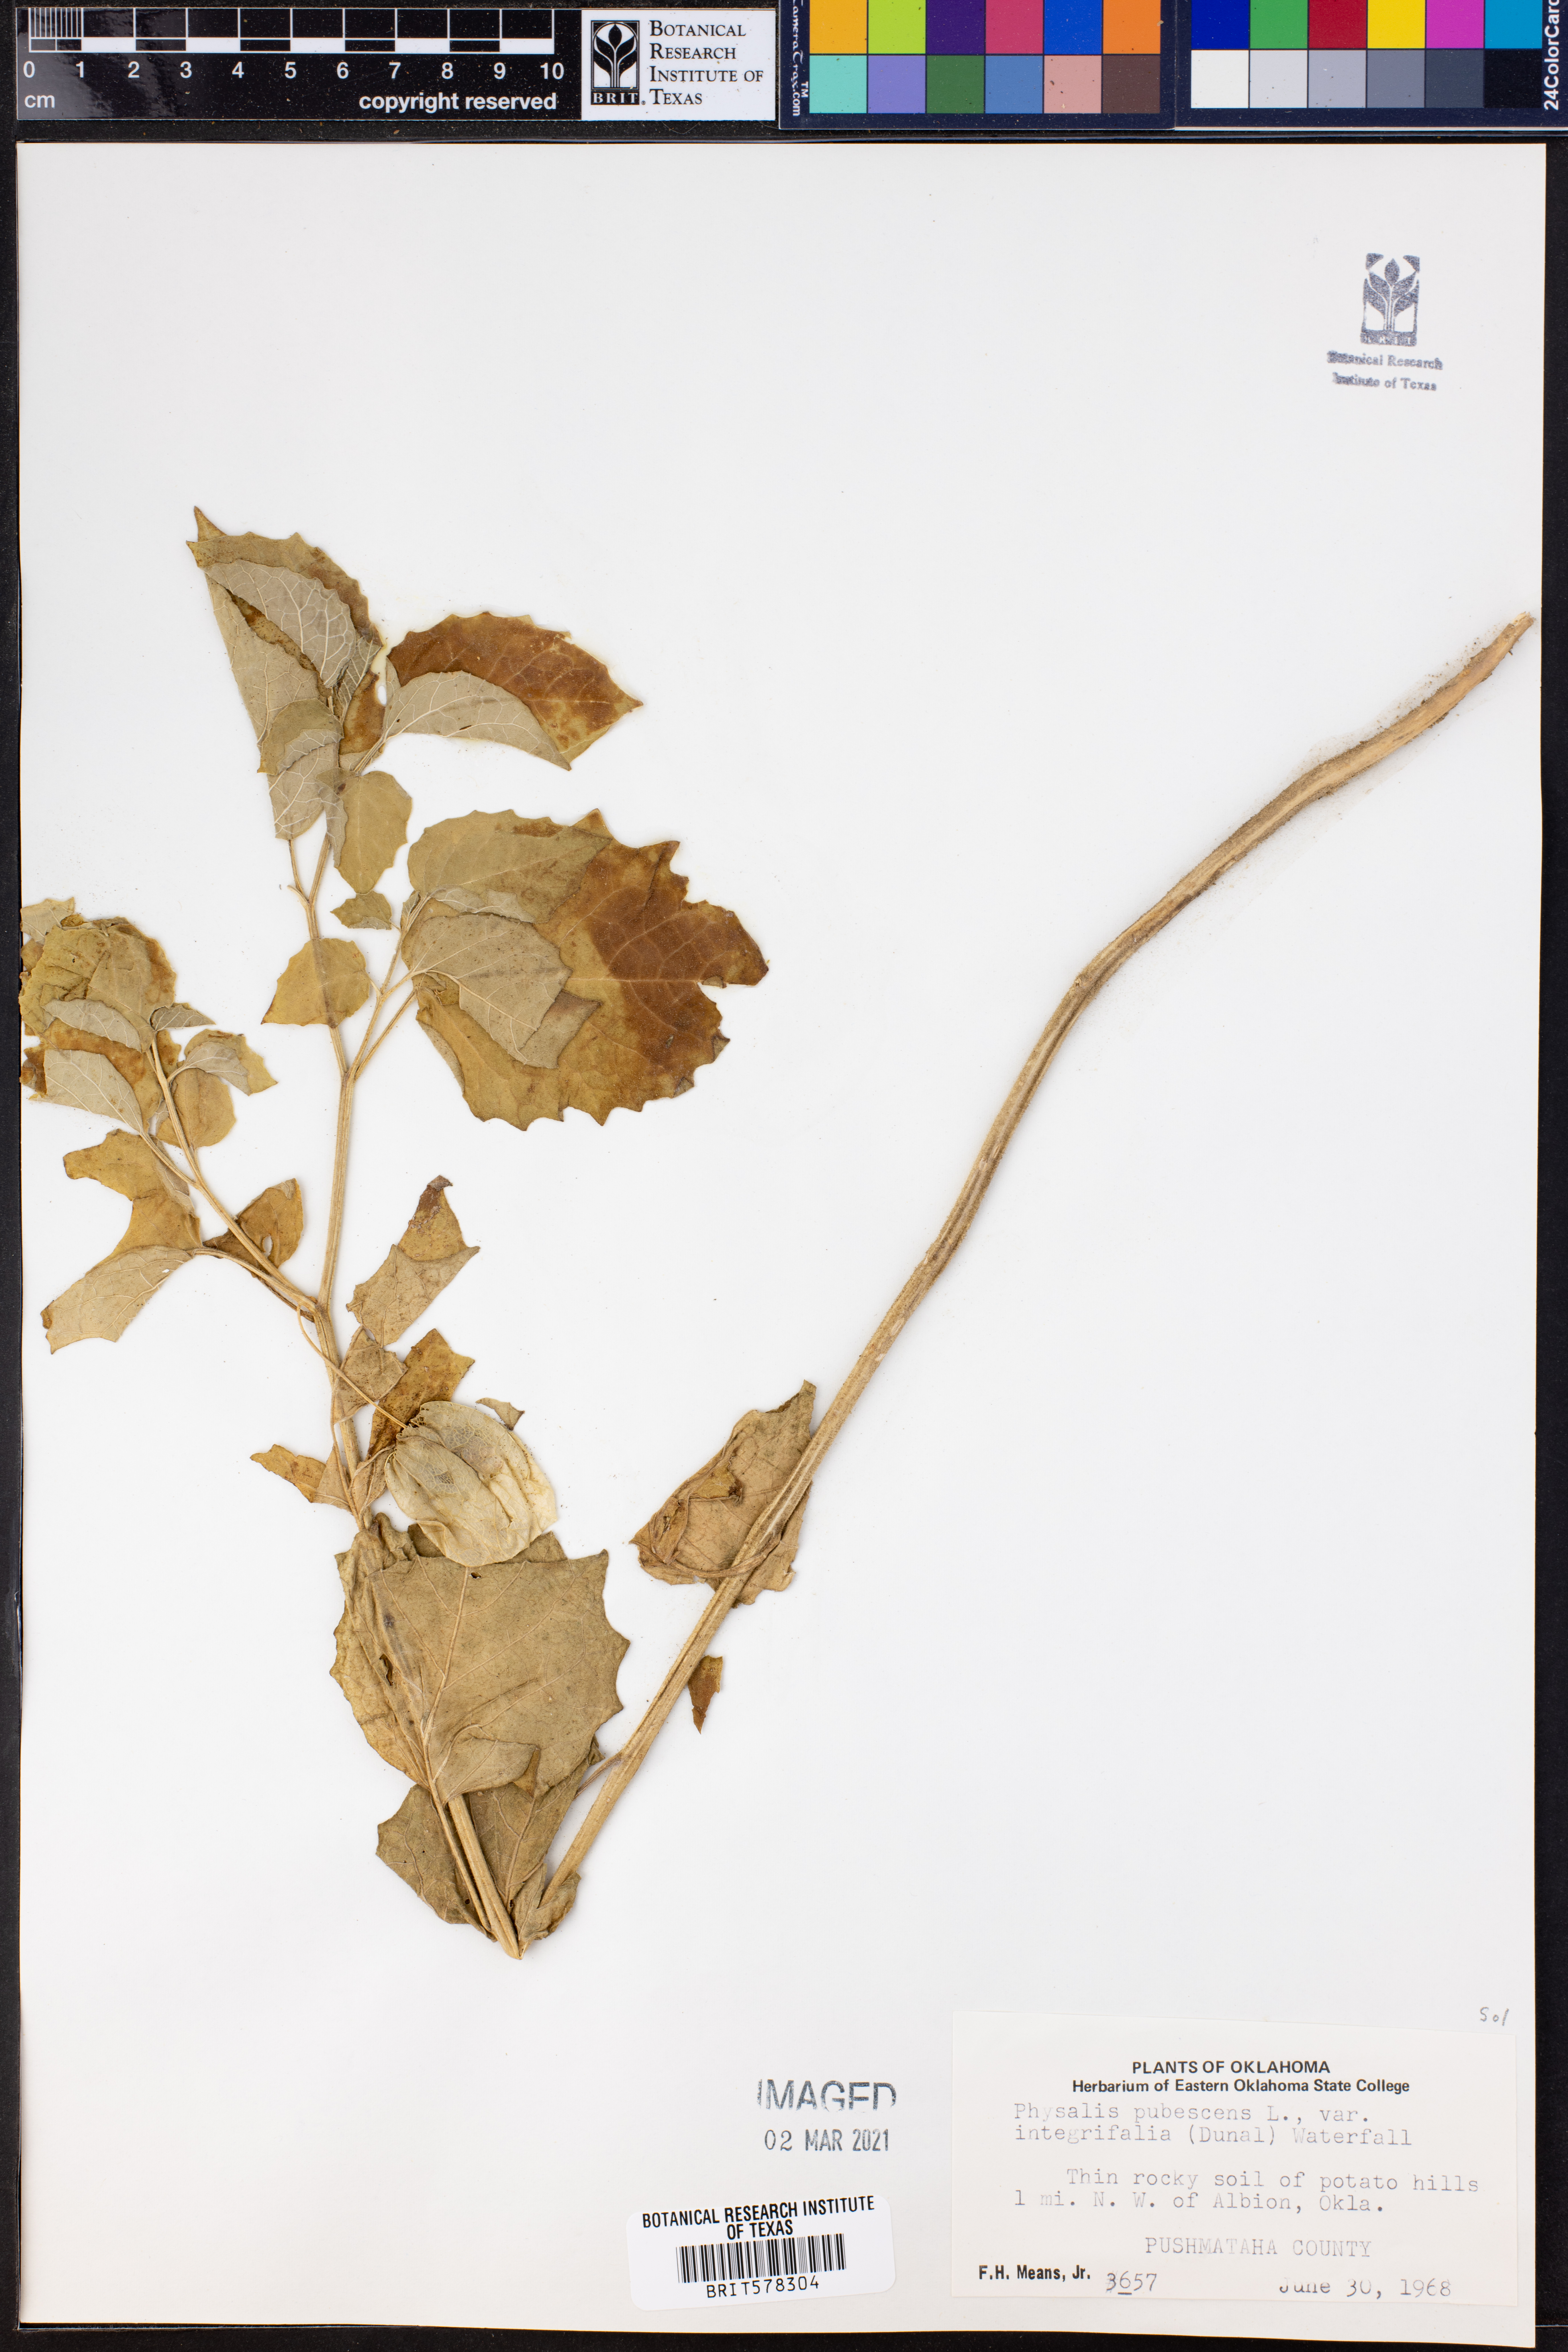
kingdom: Plantae
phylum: Tracheophyta
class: Magnoliopsida
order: Solanales
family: Solanaceae
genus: Physalis
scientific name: Physalis pubescens
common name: Downy ground-cherry
